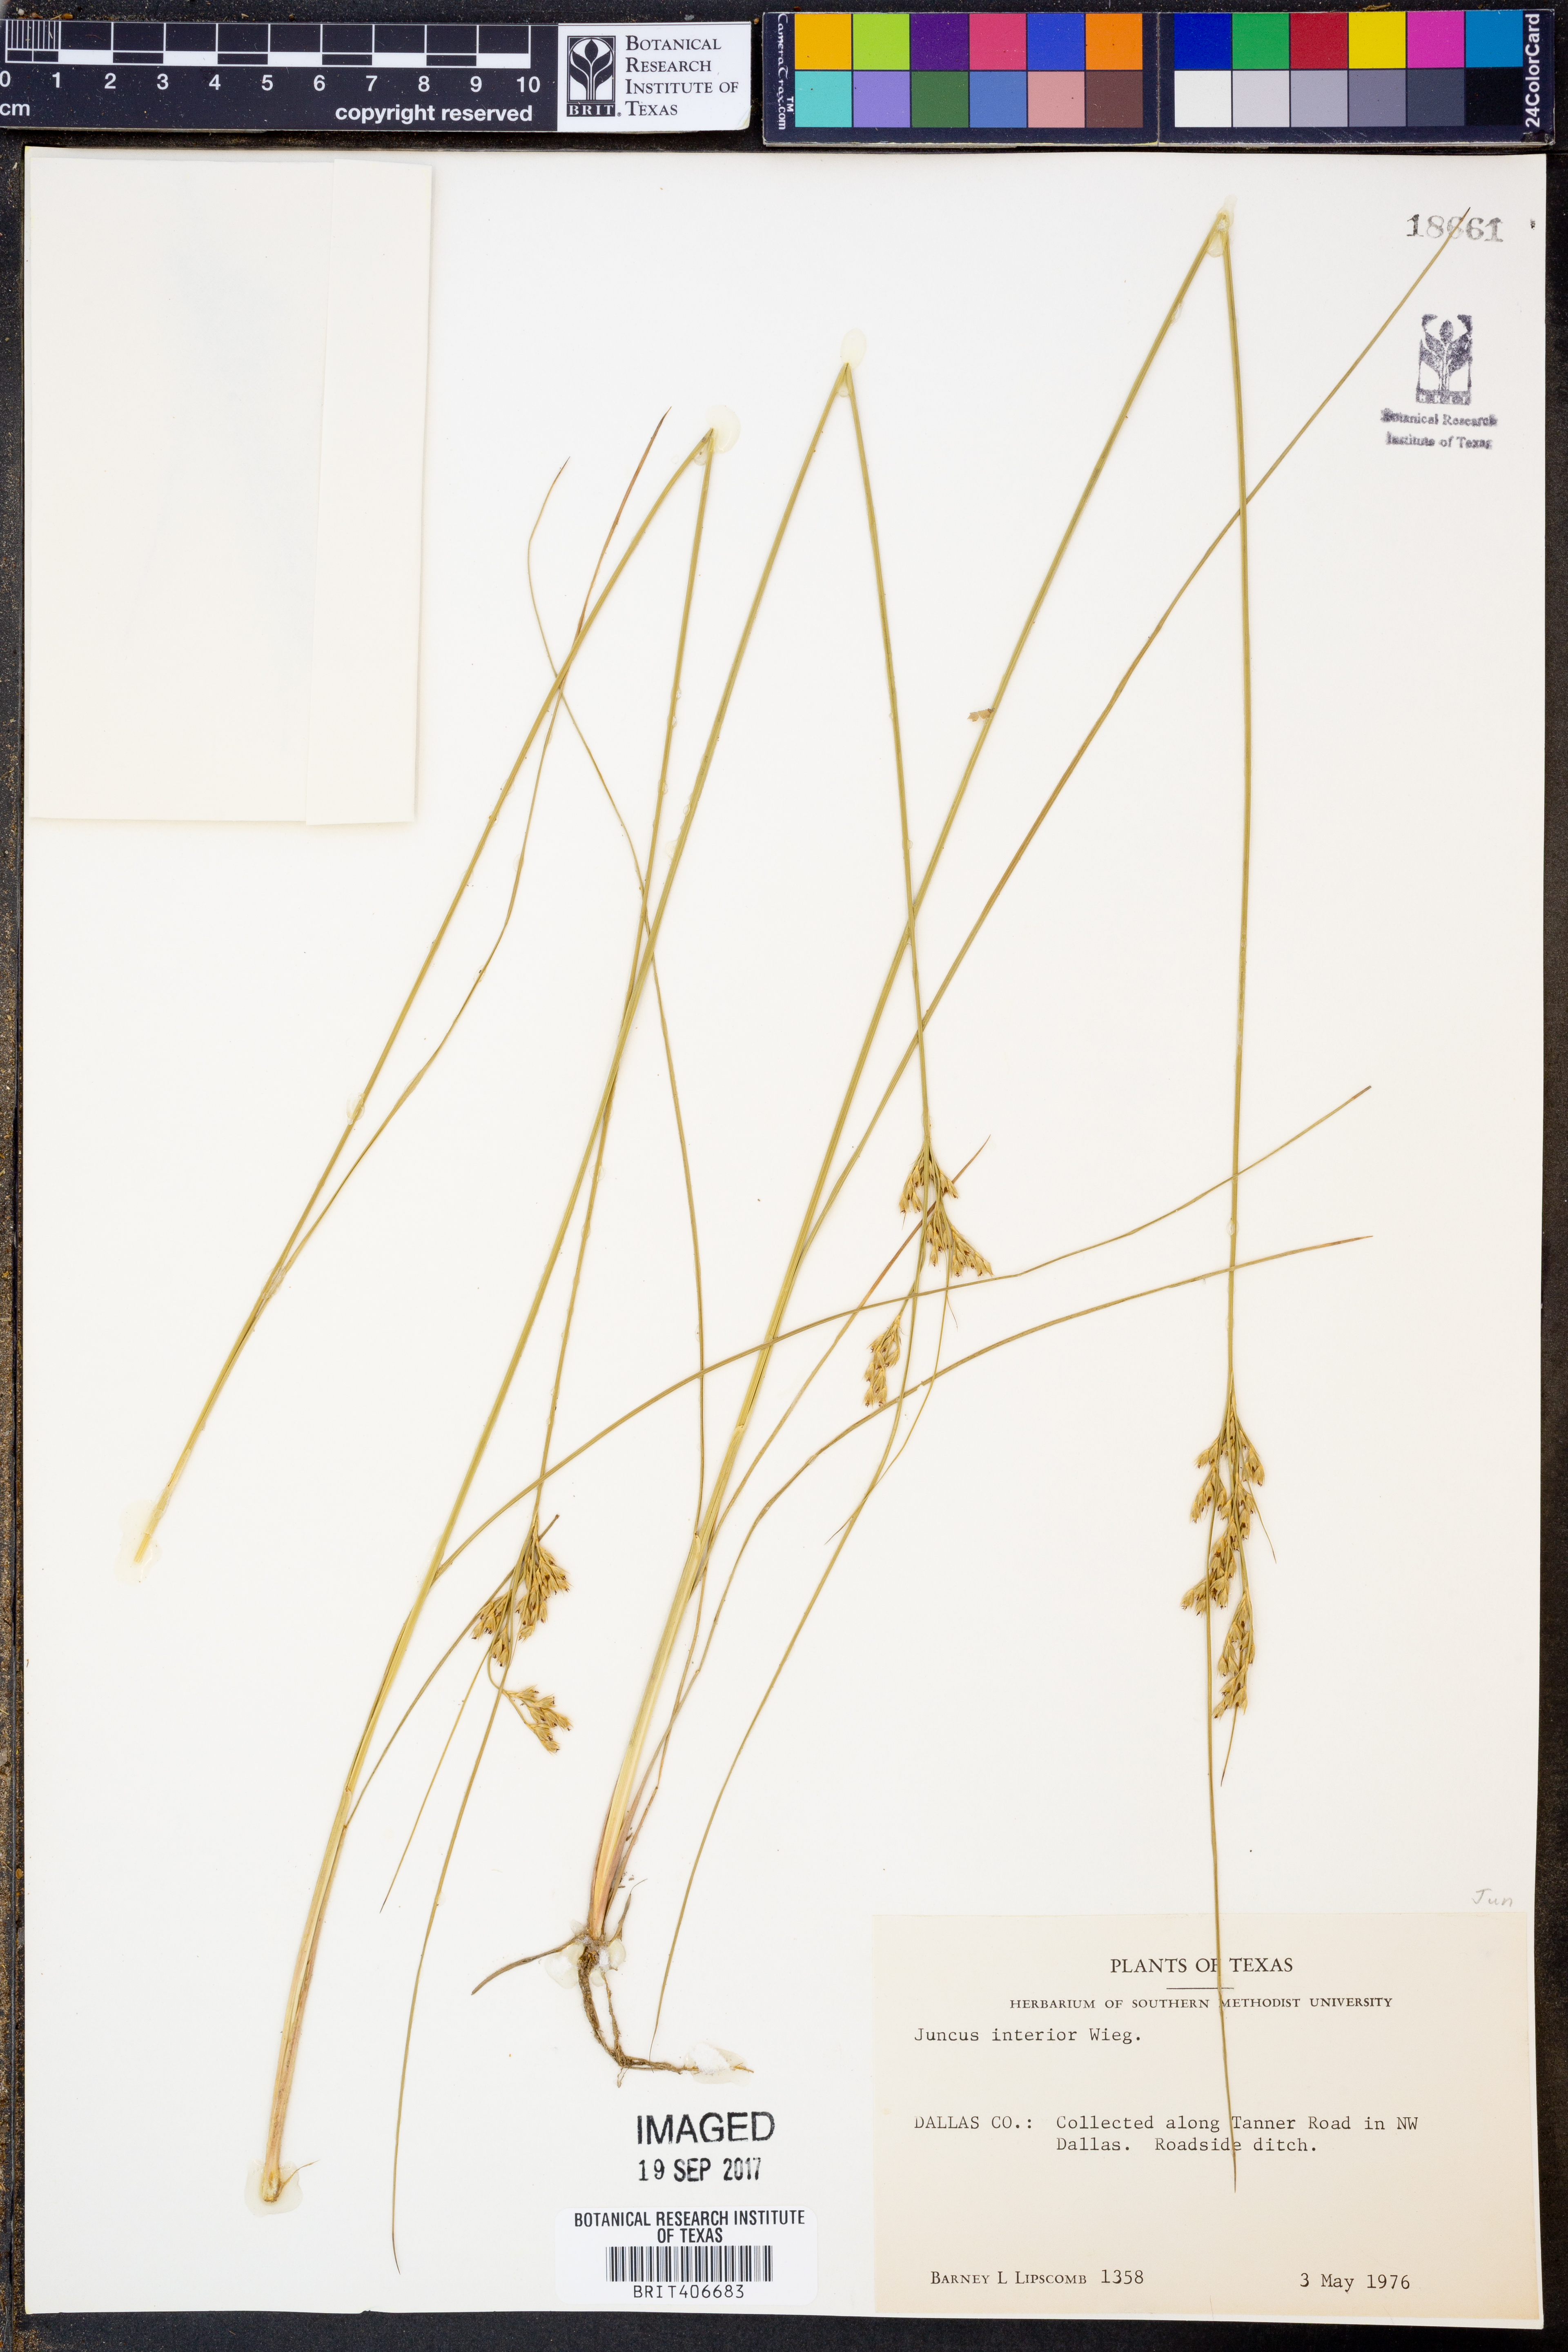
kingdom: Plantae
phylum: Tracheophyta
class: Liliopsida
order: Poales
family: Juncaceae
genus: Juncus
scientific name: Juncus interior
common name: Interior rush
